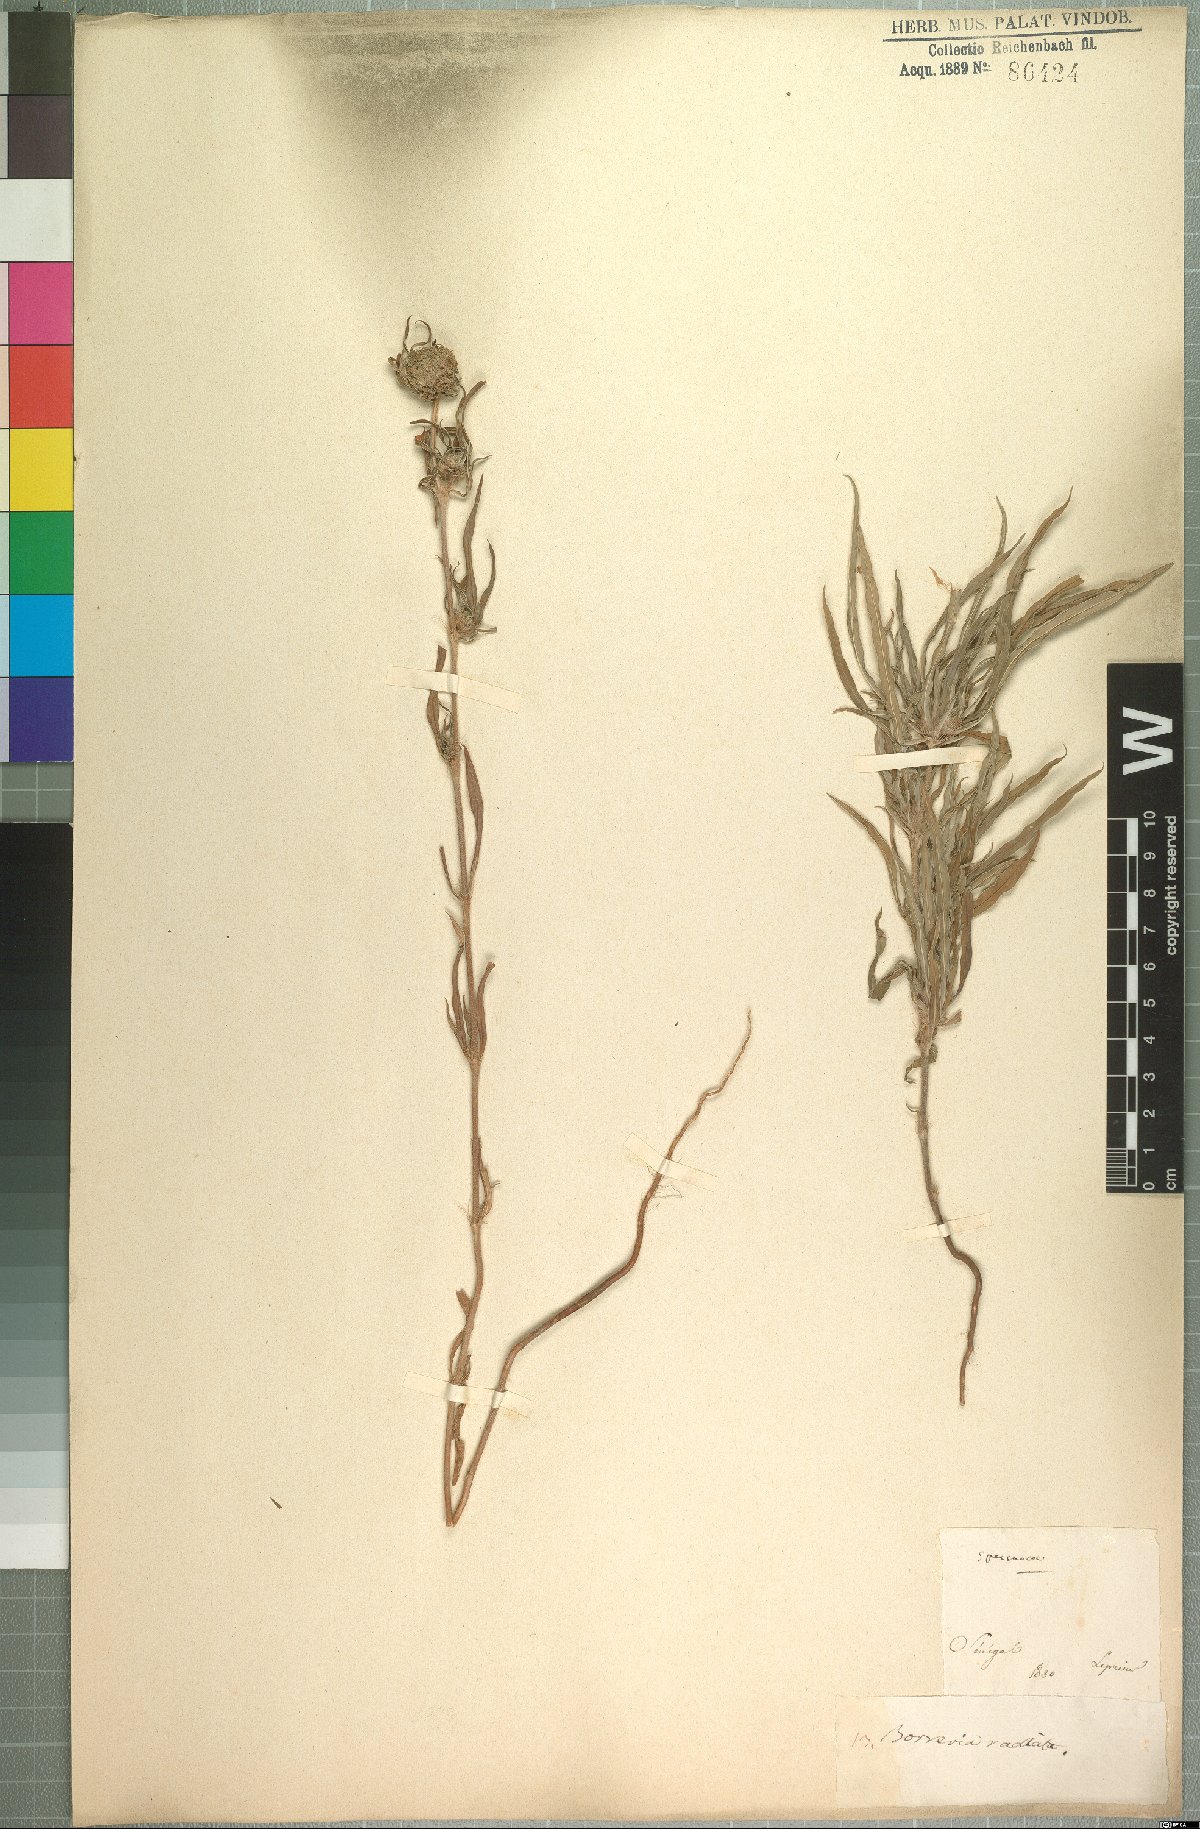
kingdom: Plantae
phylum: Tracheophyta
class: Magnoliopsida
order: Gentianales
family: Rubiaceae
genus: Spermacoce
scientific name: Spermacoce radiata
